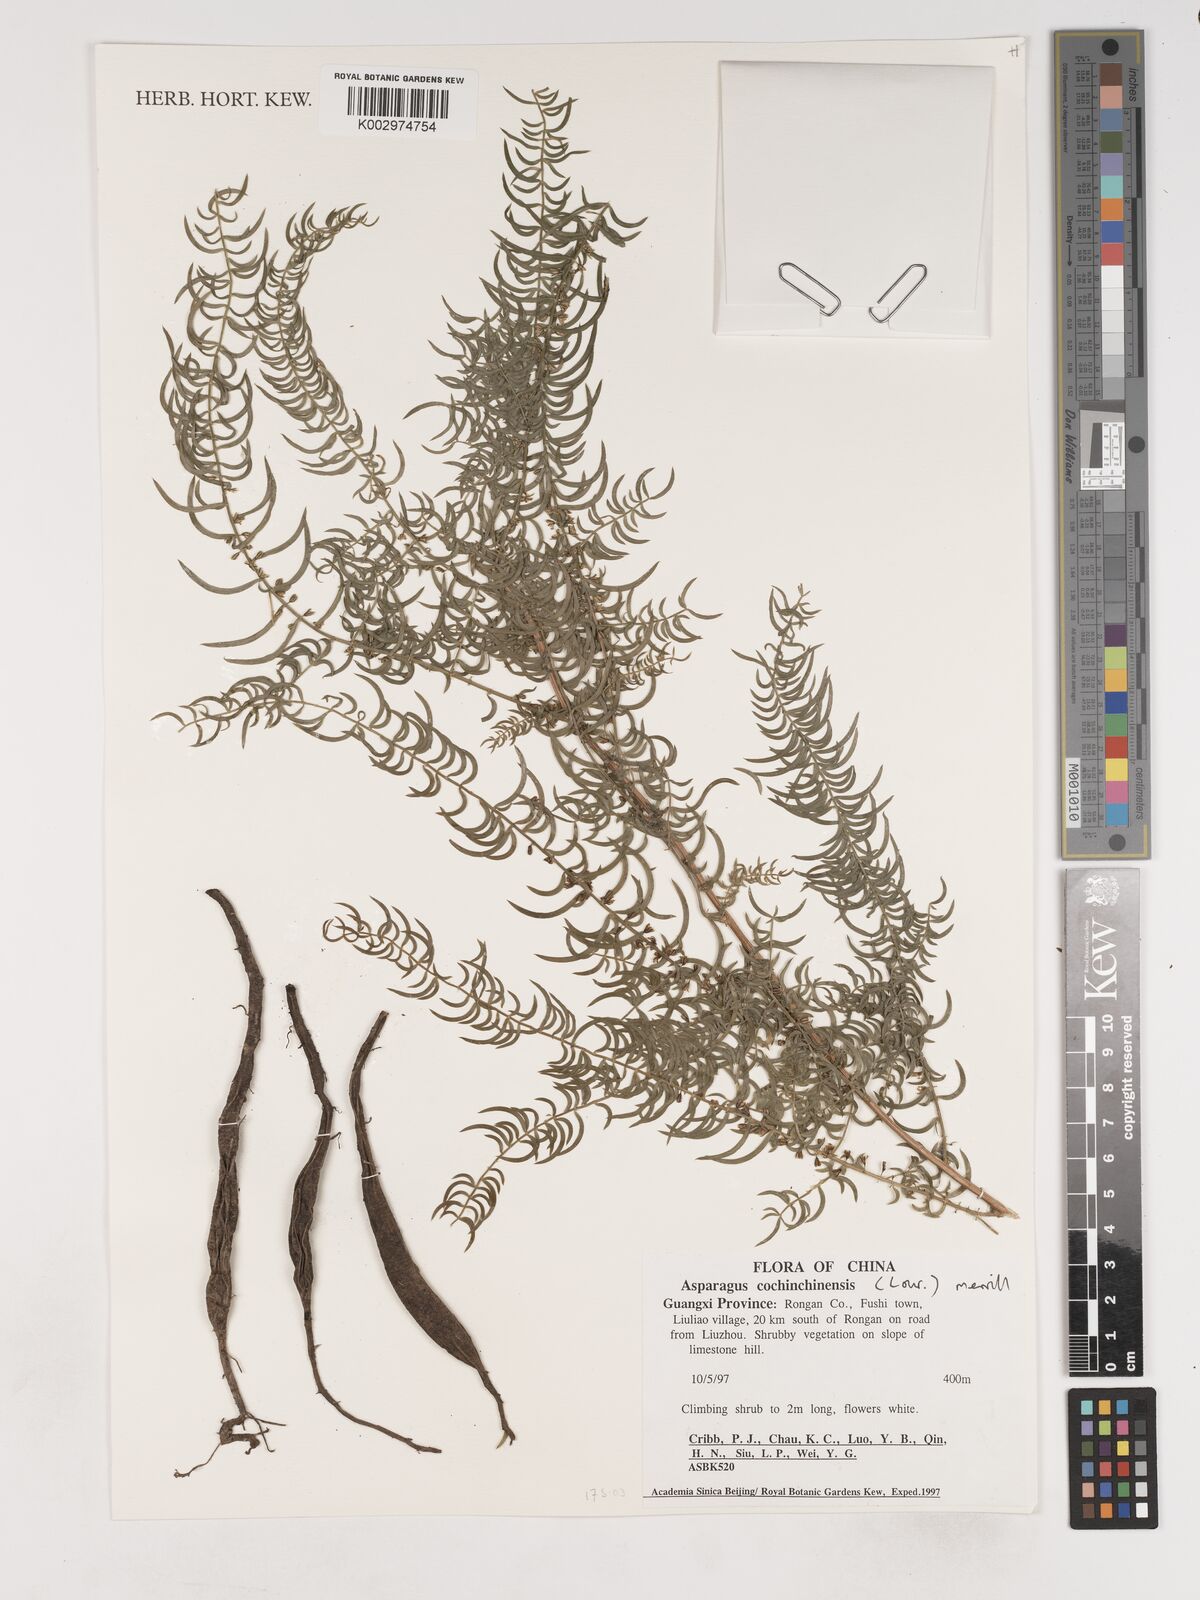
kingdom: Plantae
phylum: Tracheophyta
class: Liliopsida
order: Asparagales
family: Asparagaceae
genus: Asparagus
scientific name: Asparagus
